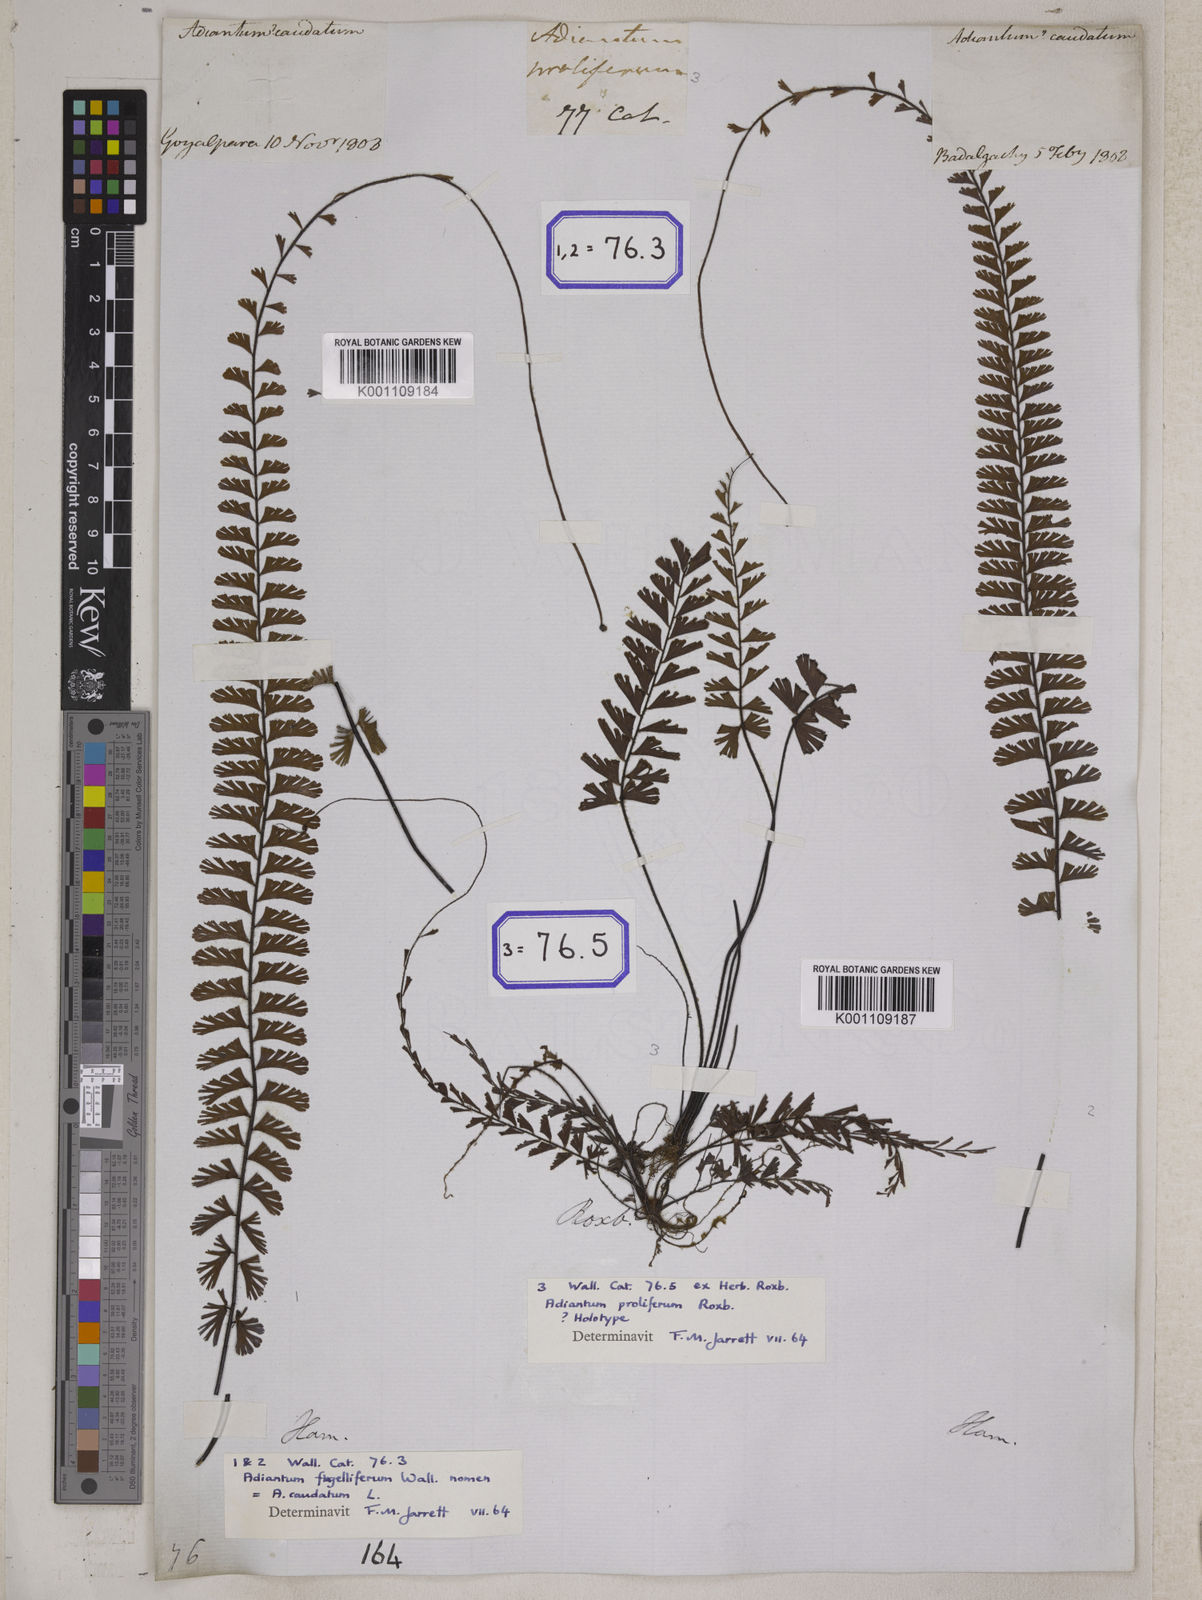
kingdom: Plantae
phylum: Tracheophyta
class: Polypodiopsida
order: Polypodiales
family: Pteridaceae
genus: Adiantum
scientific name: Adiantum caudatum
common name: Tailed maidenhair
